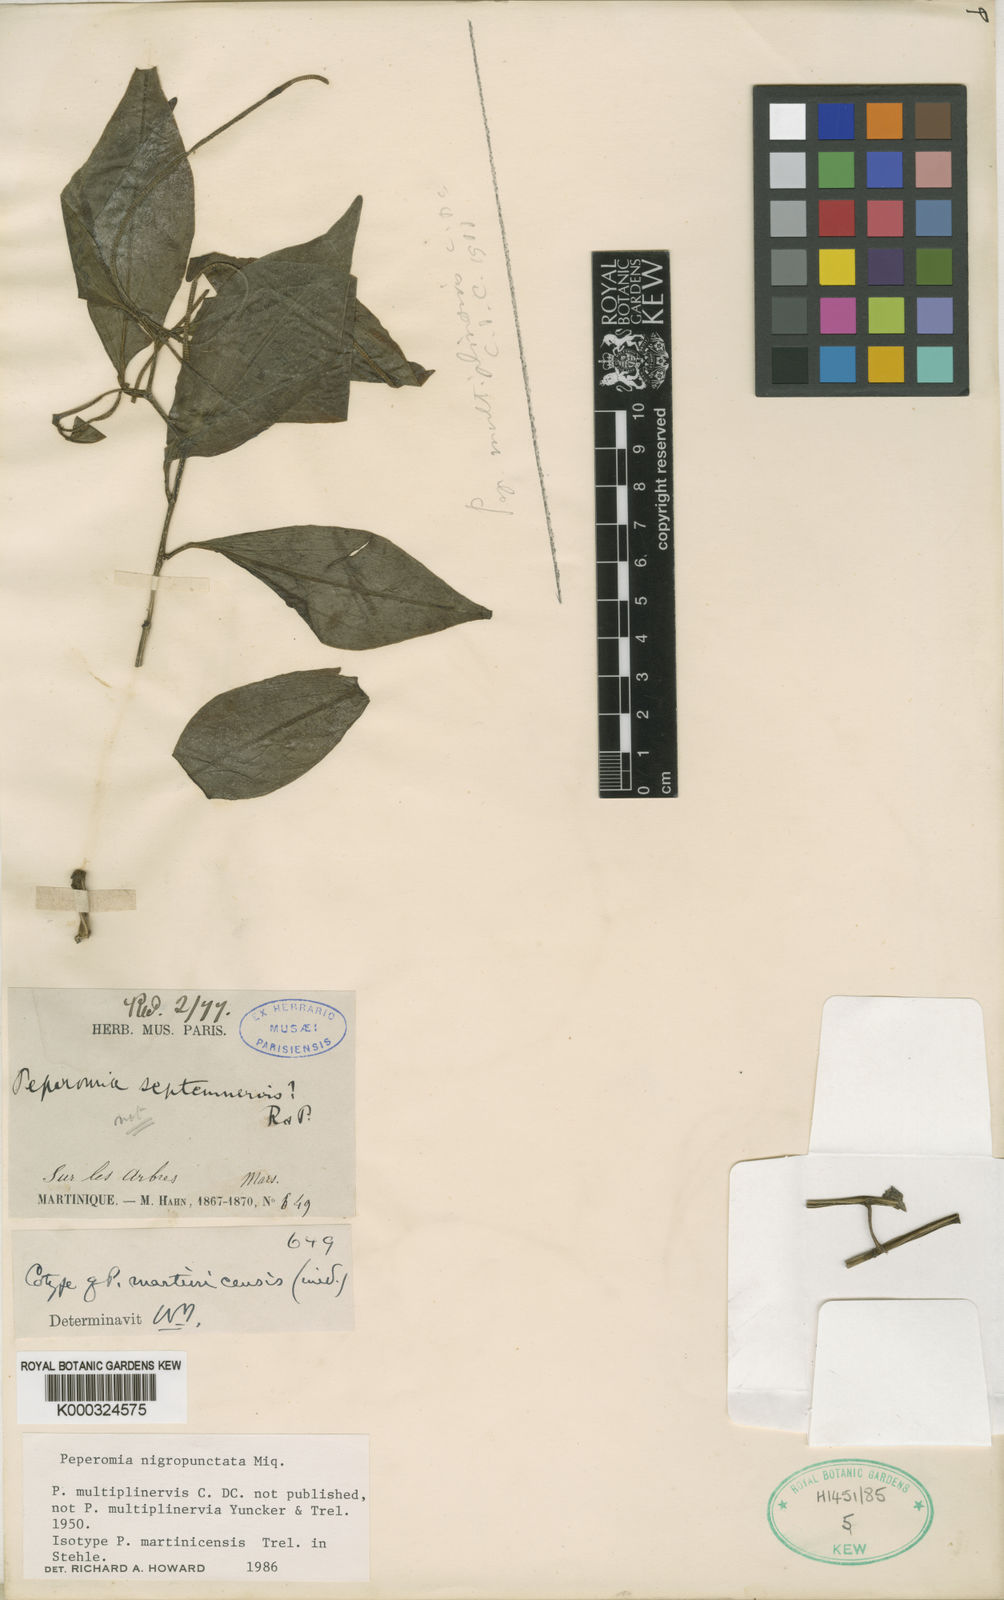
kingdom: Plantae
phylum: Tracheophyta
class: Magnoliopsida
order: Piperales
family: Piperaceae
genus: Peperomia
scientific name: Peperomia glabella
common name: Cypress peperomia
